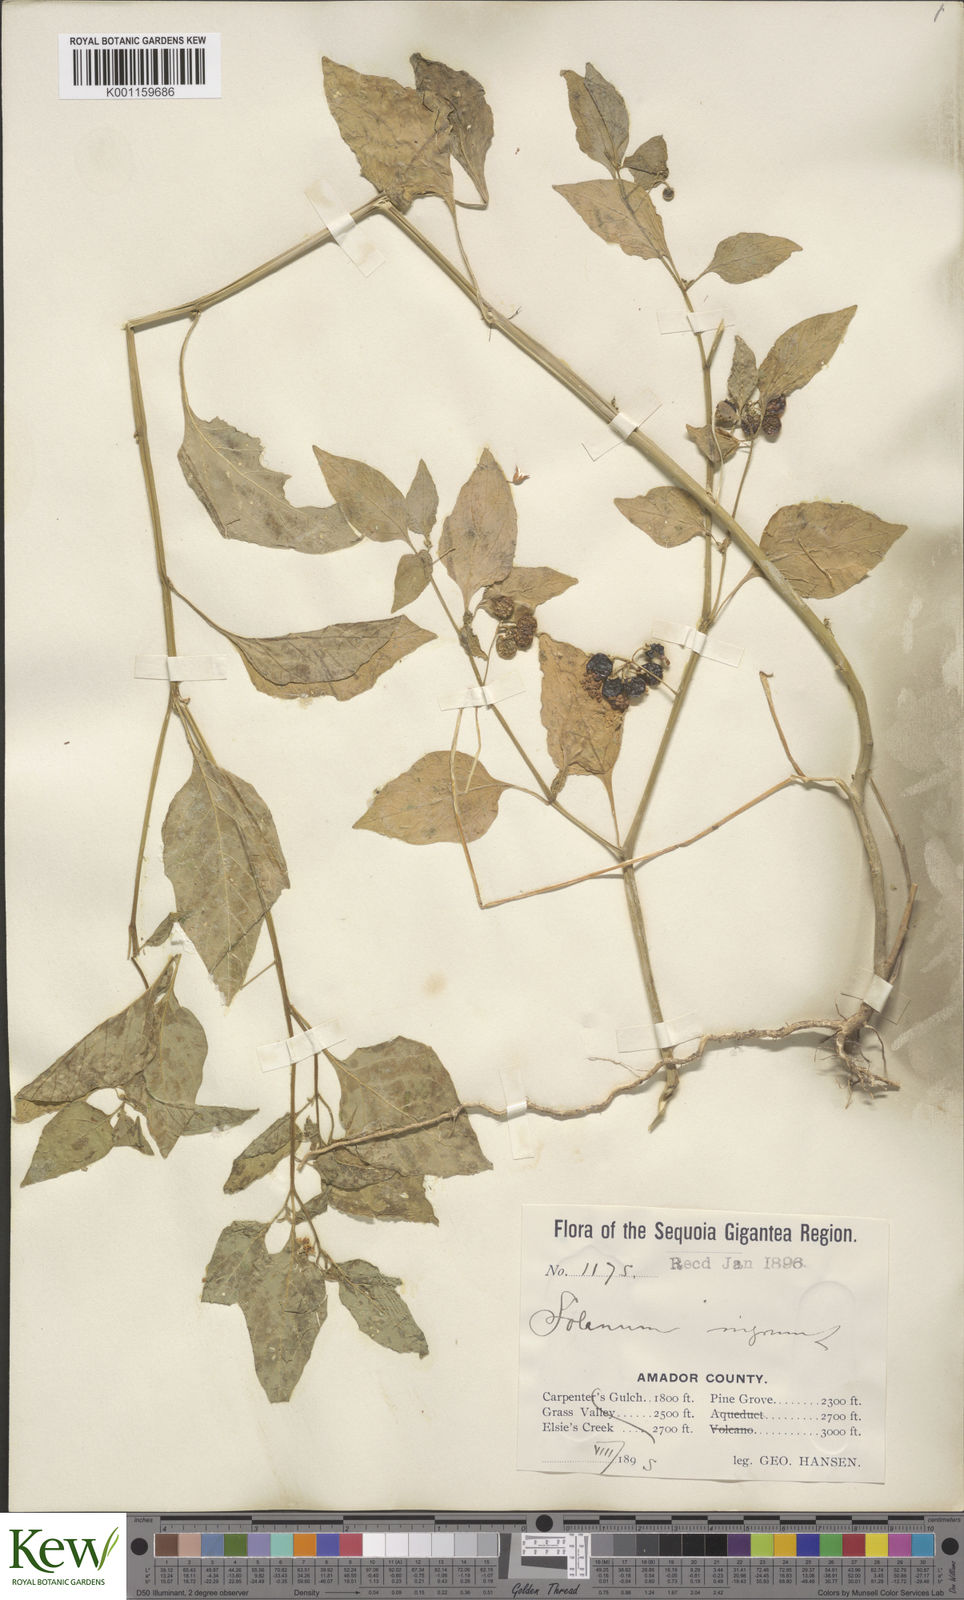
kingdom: Plantae
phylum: Tracheophyta
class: Magnoliopsida
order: Solanales
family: Solanaceae
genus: Solanum
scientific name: Solanum americanum
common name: American black nightshade
